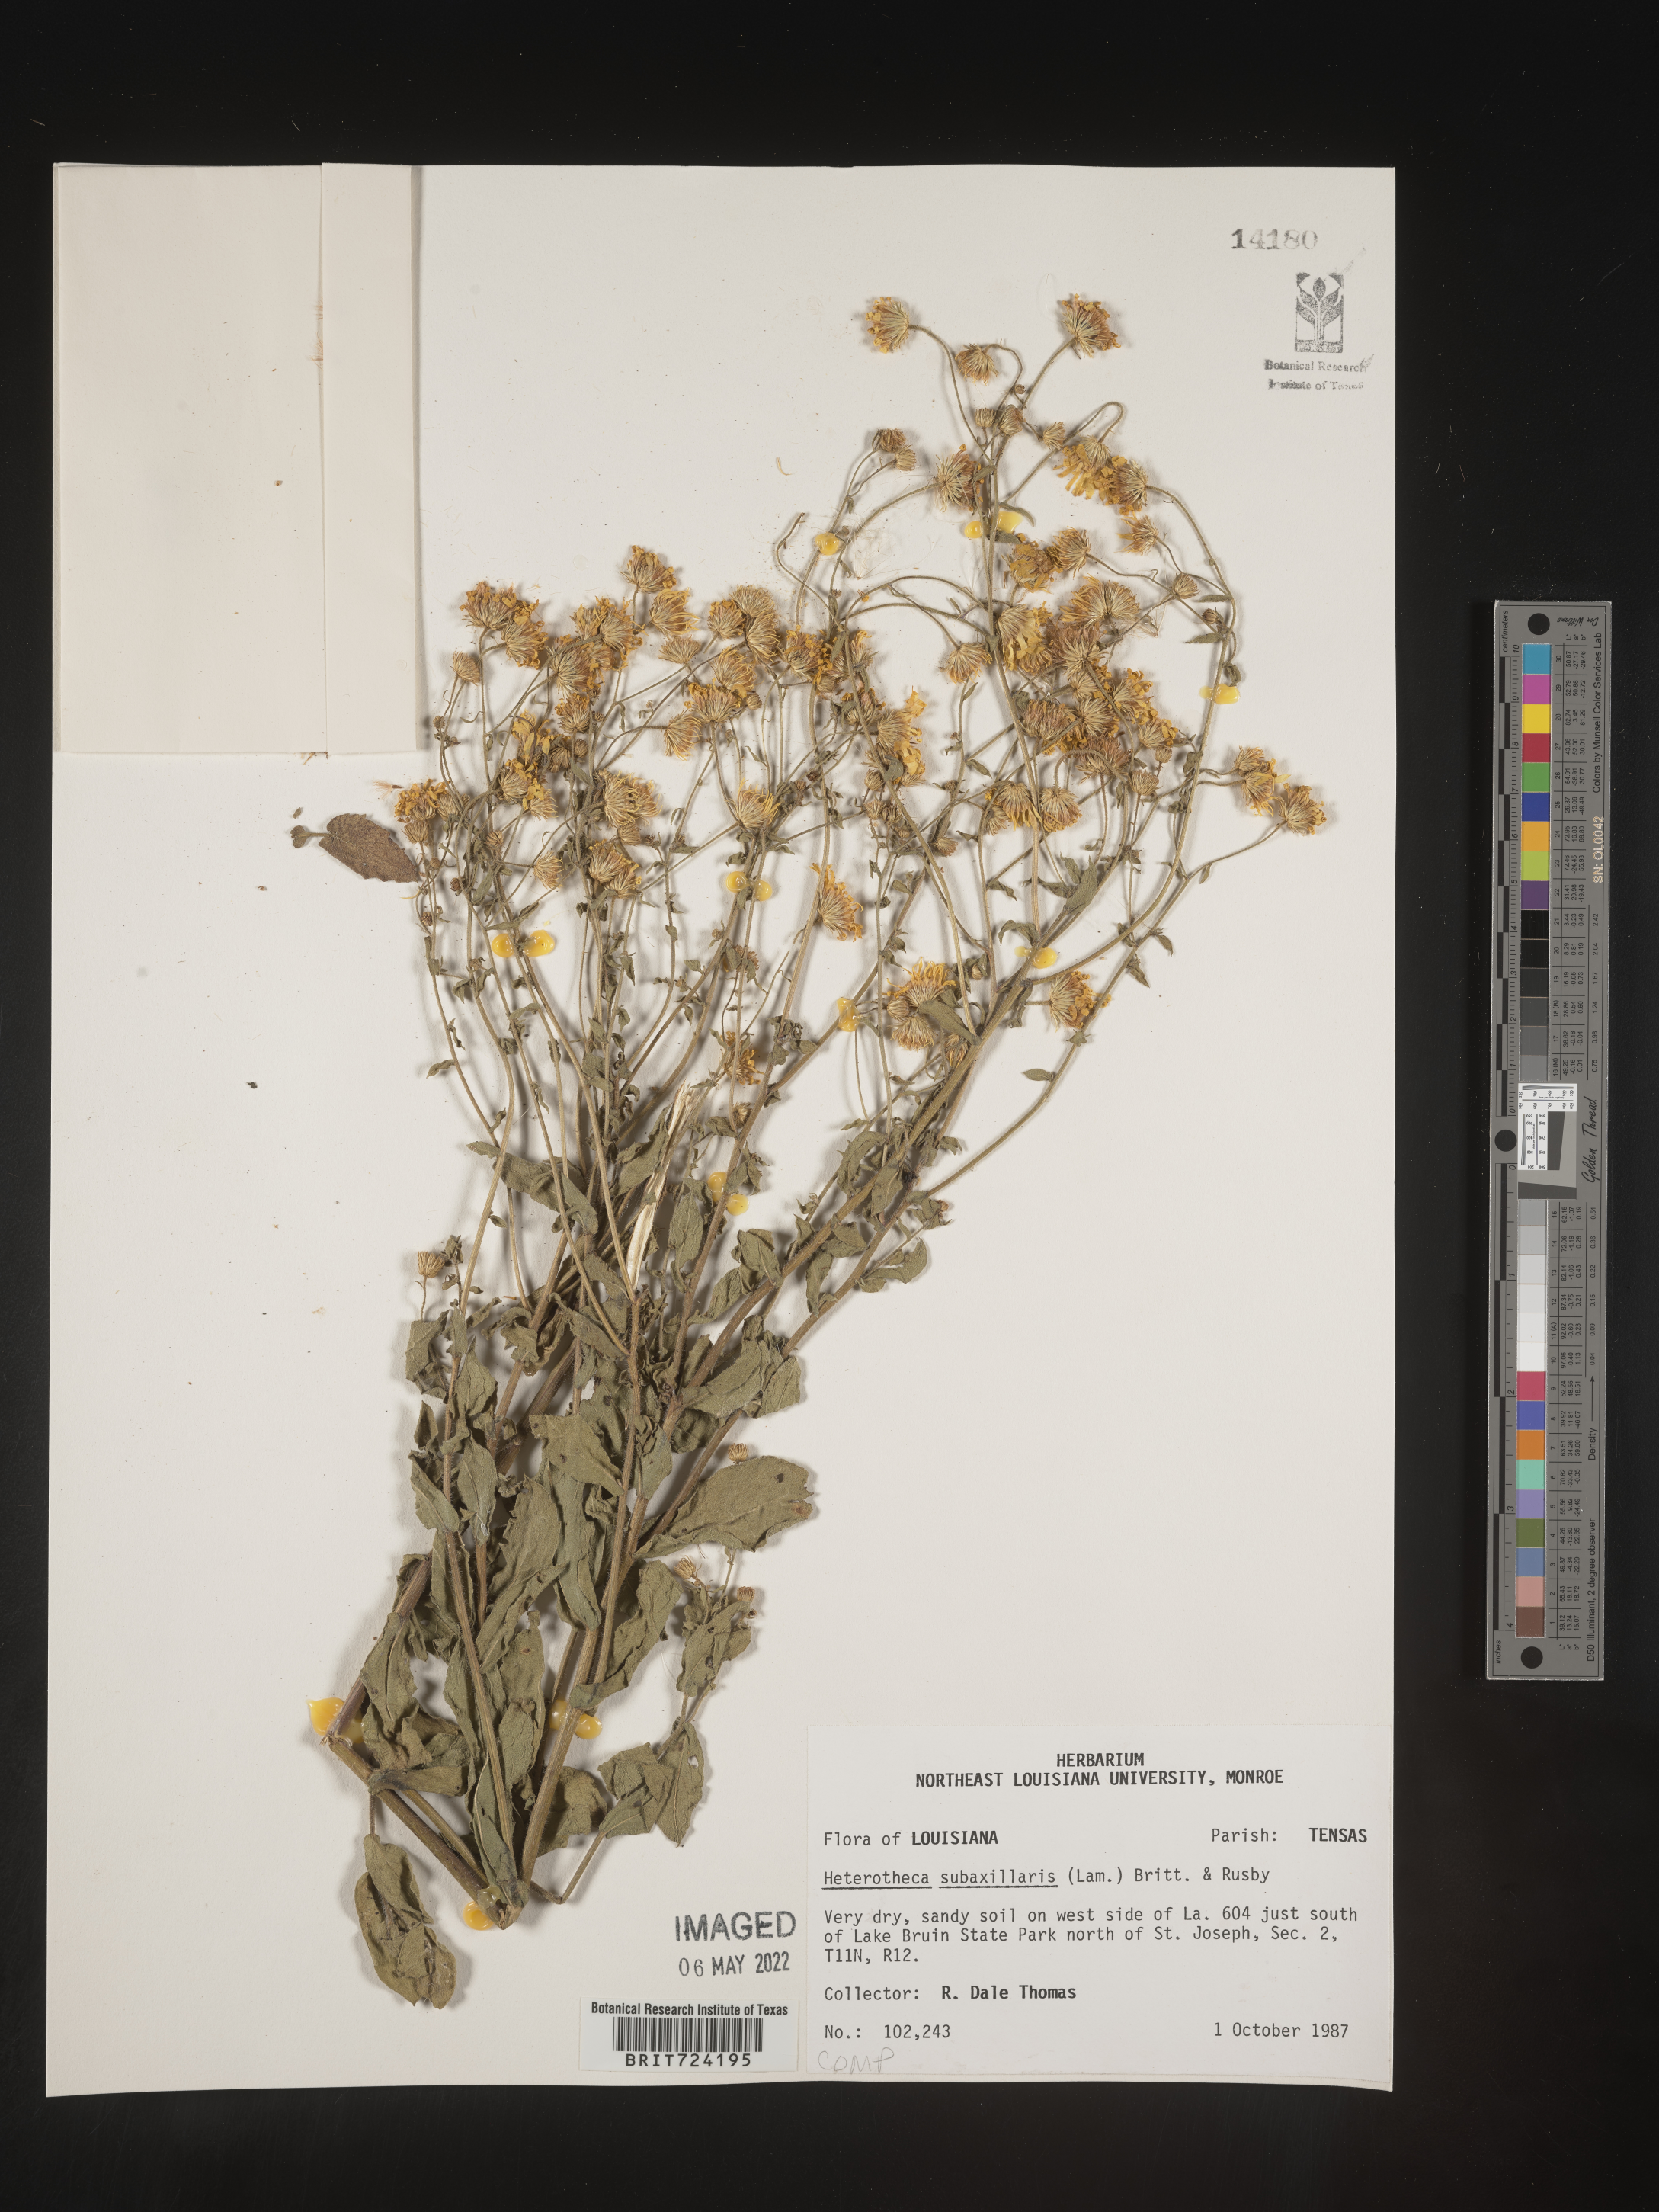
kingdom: Plantae
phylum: Tracheophyta
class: Magnoliopsida
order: Asterales
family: Asteraceae
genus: Heterotheca
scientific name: Heterotheca subaxillaris
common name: Camphorweed
